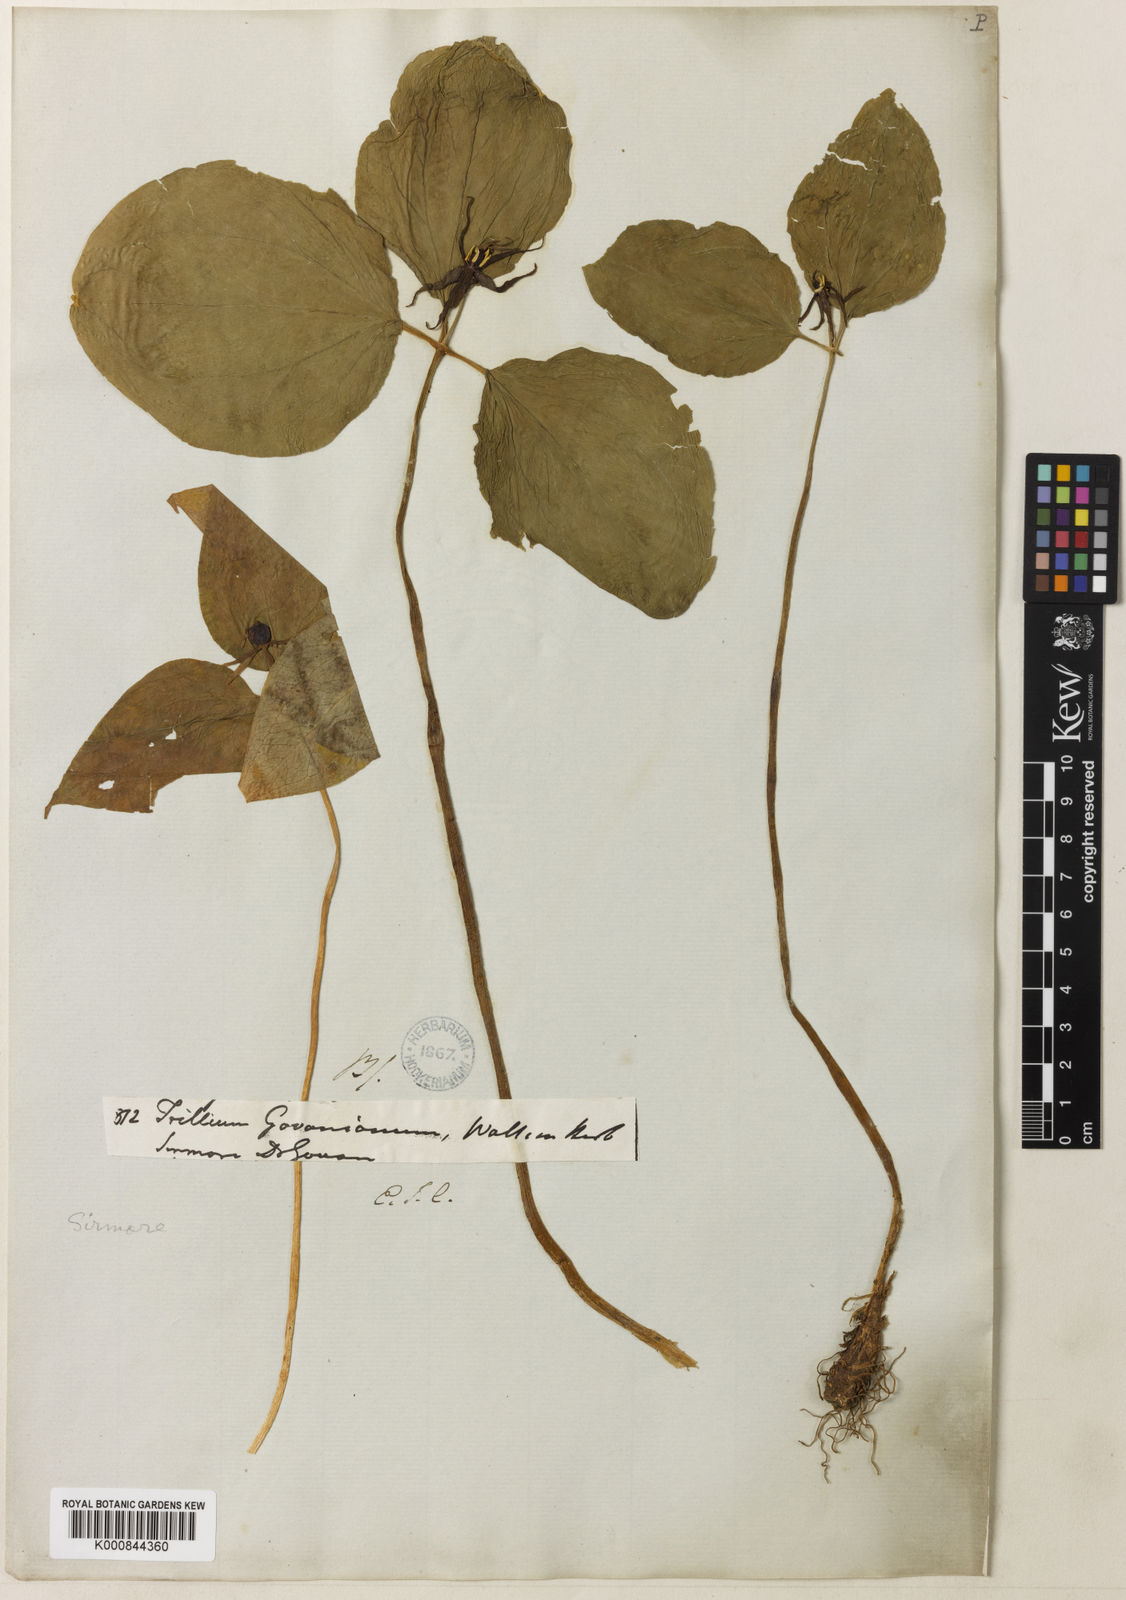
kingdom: Plantae
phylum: Tracheophyta
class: Liliopsida
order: Liliales
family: Melanthiaceae
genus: Trillium
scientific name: Trillium govanianum
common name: Himalayan trillium
